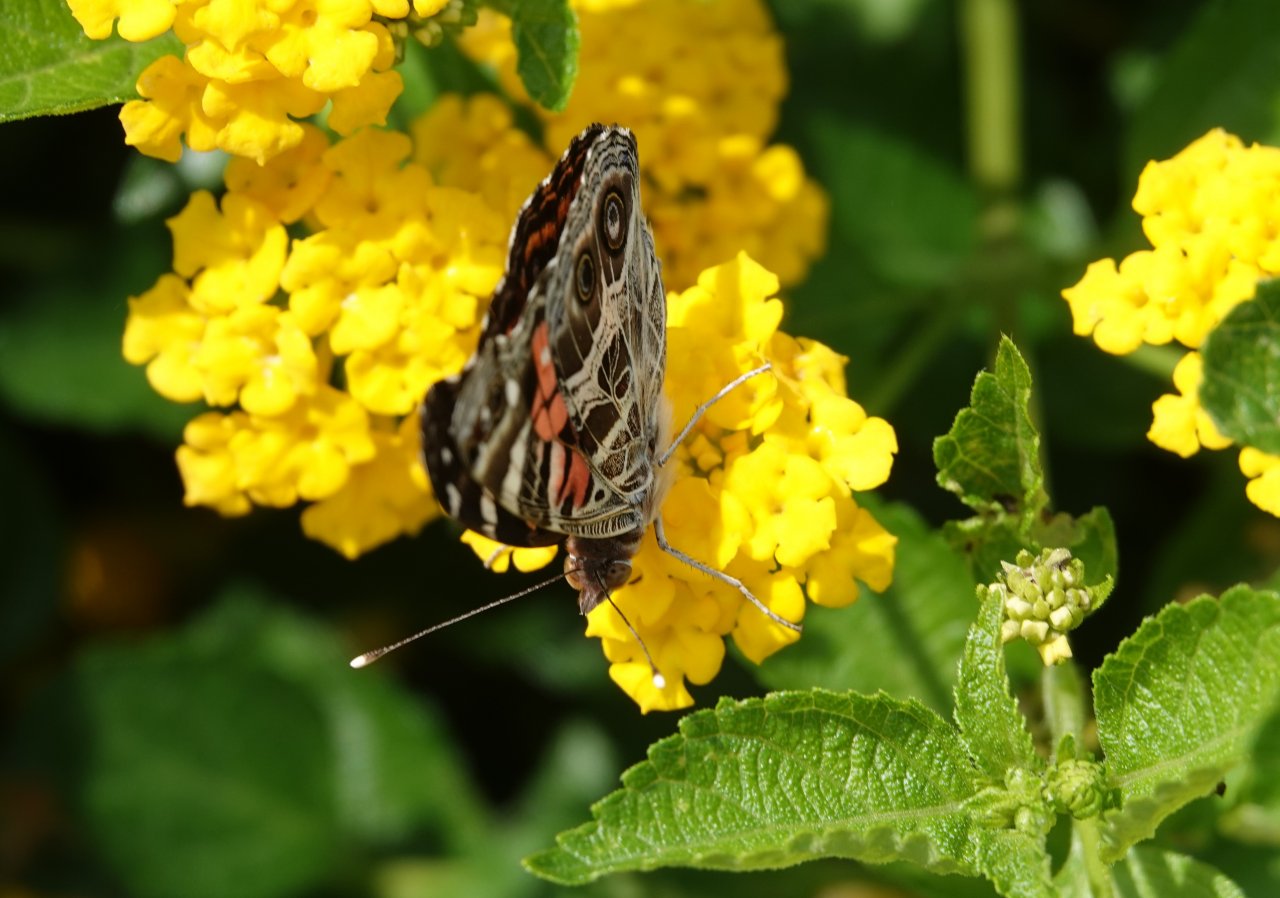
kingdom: Animalia
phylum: Arthropoda
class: Insecta
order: Lepidoptera
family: Nymphalidae
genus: Vanessa
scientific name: Vanessa virginiensis
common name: American Lady
